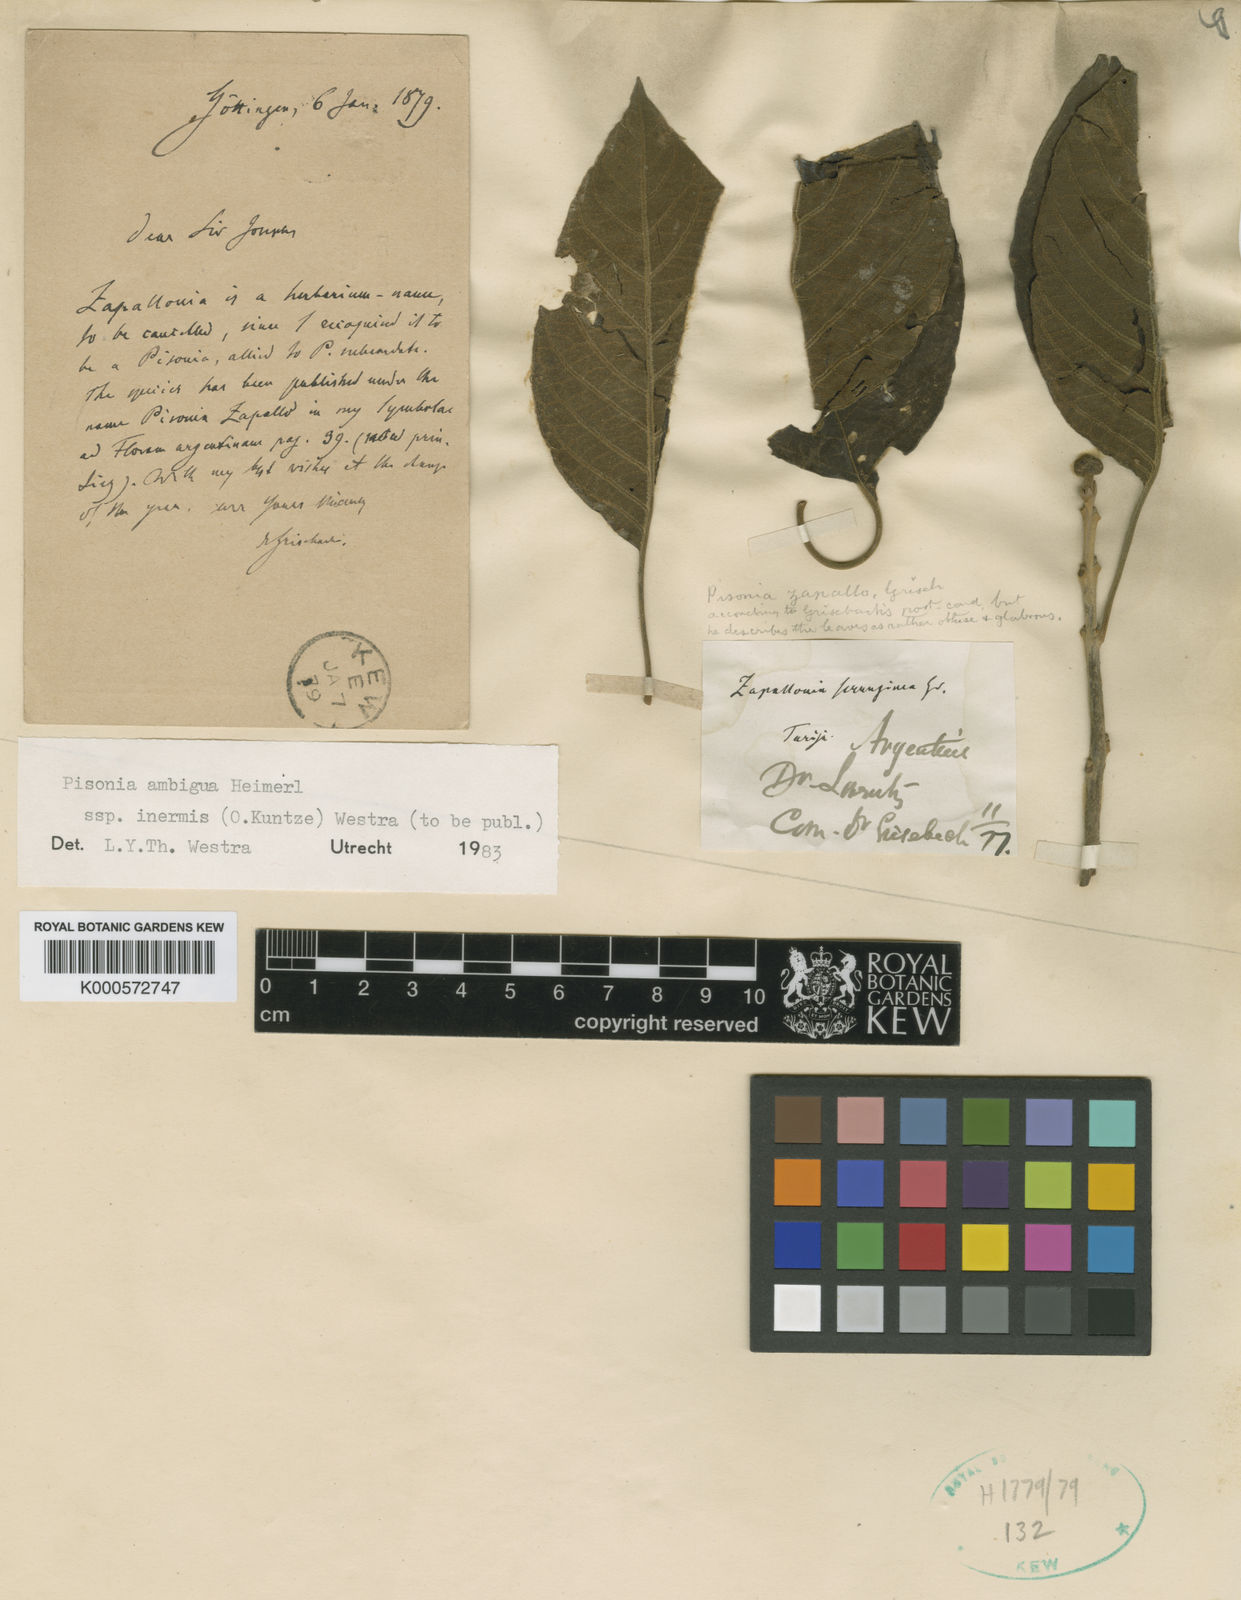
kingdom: Plantae
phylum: Tracheophyta
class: Magnoliopsida
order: Caryophyllales
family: Nyctaginaceae
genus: Pisonia
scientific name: Pisonia zapallo
